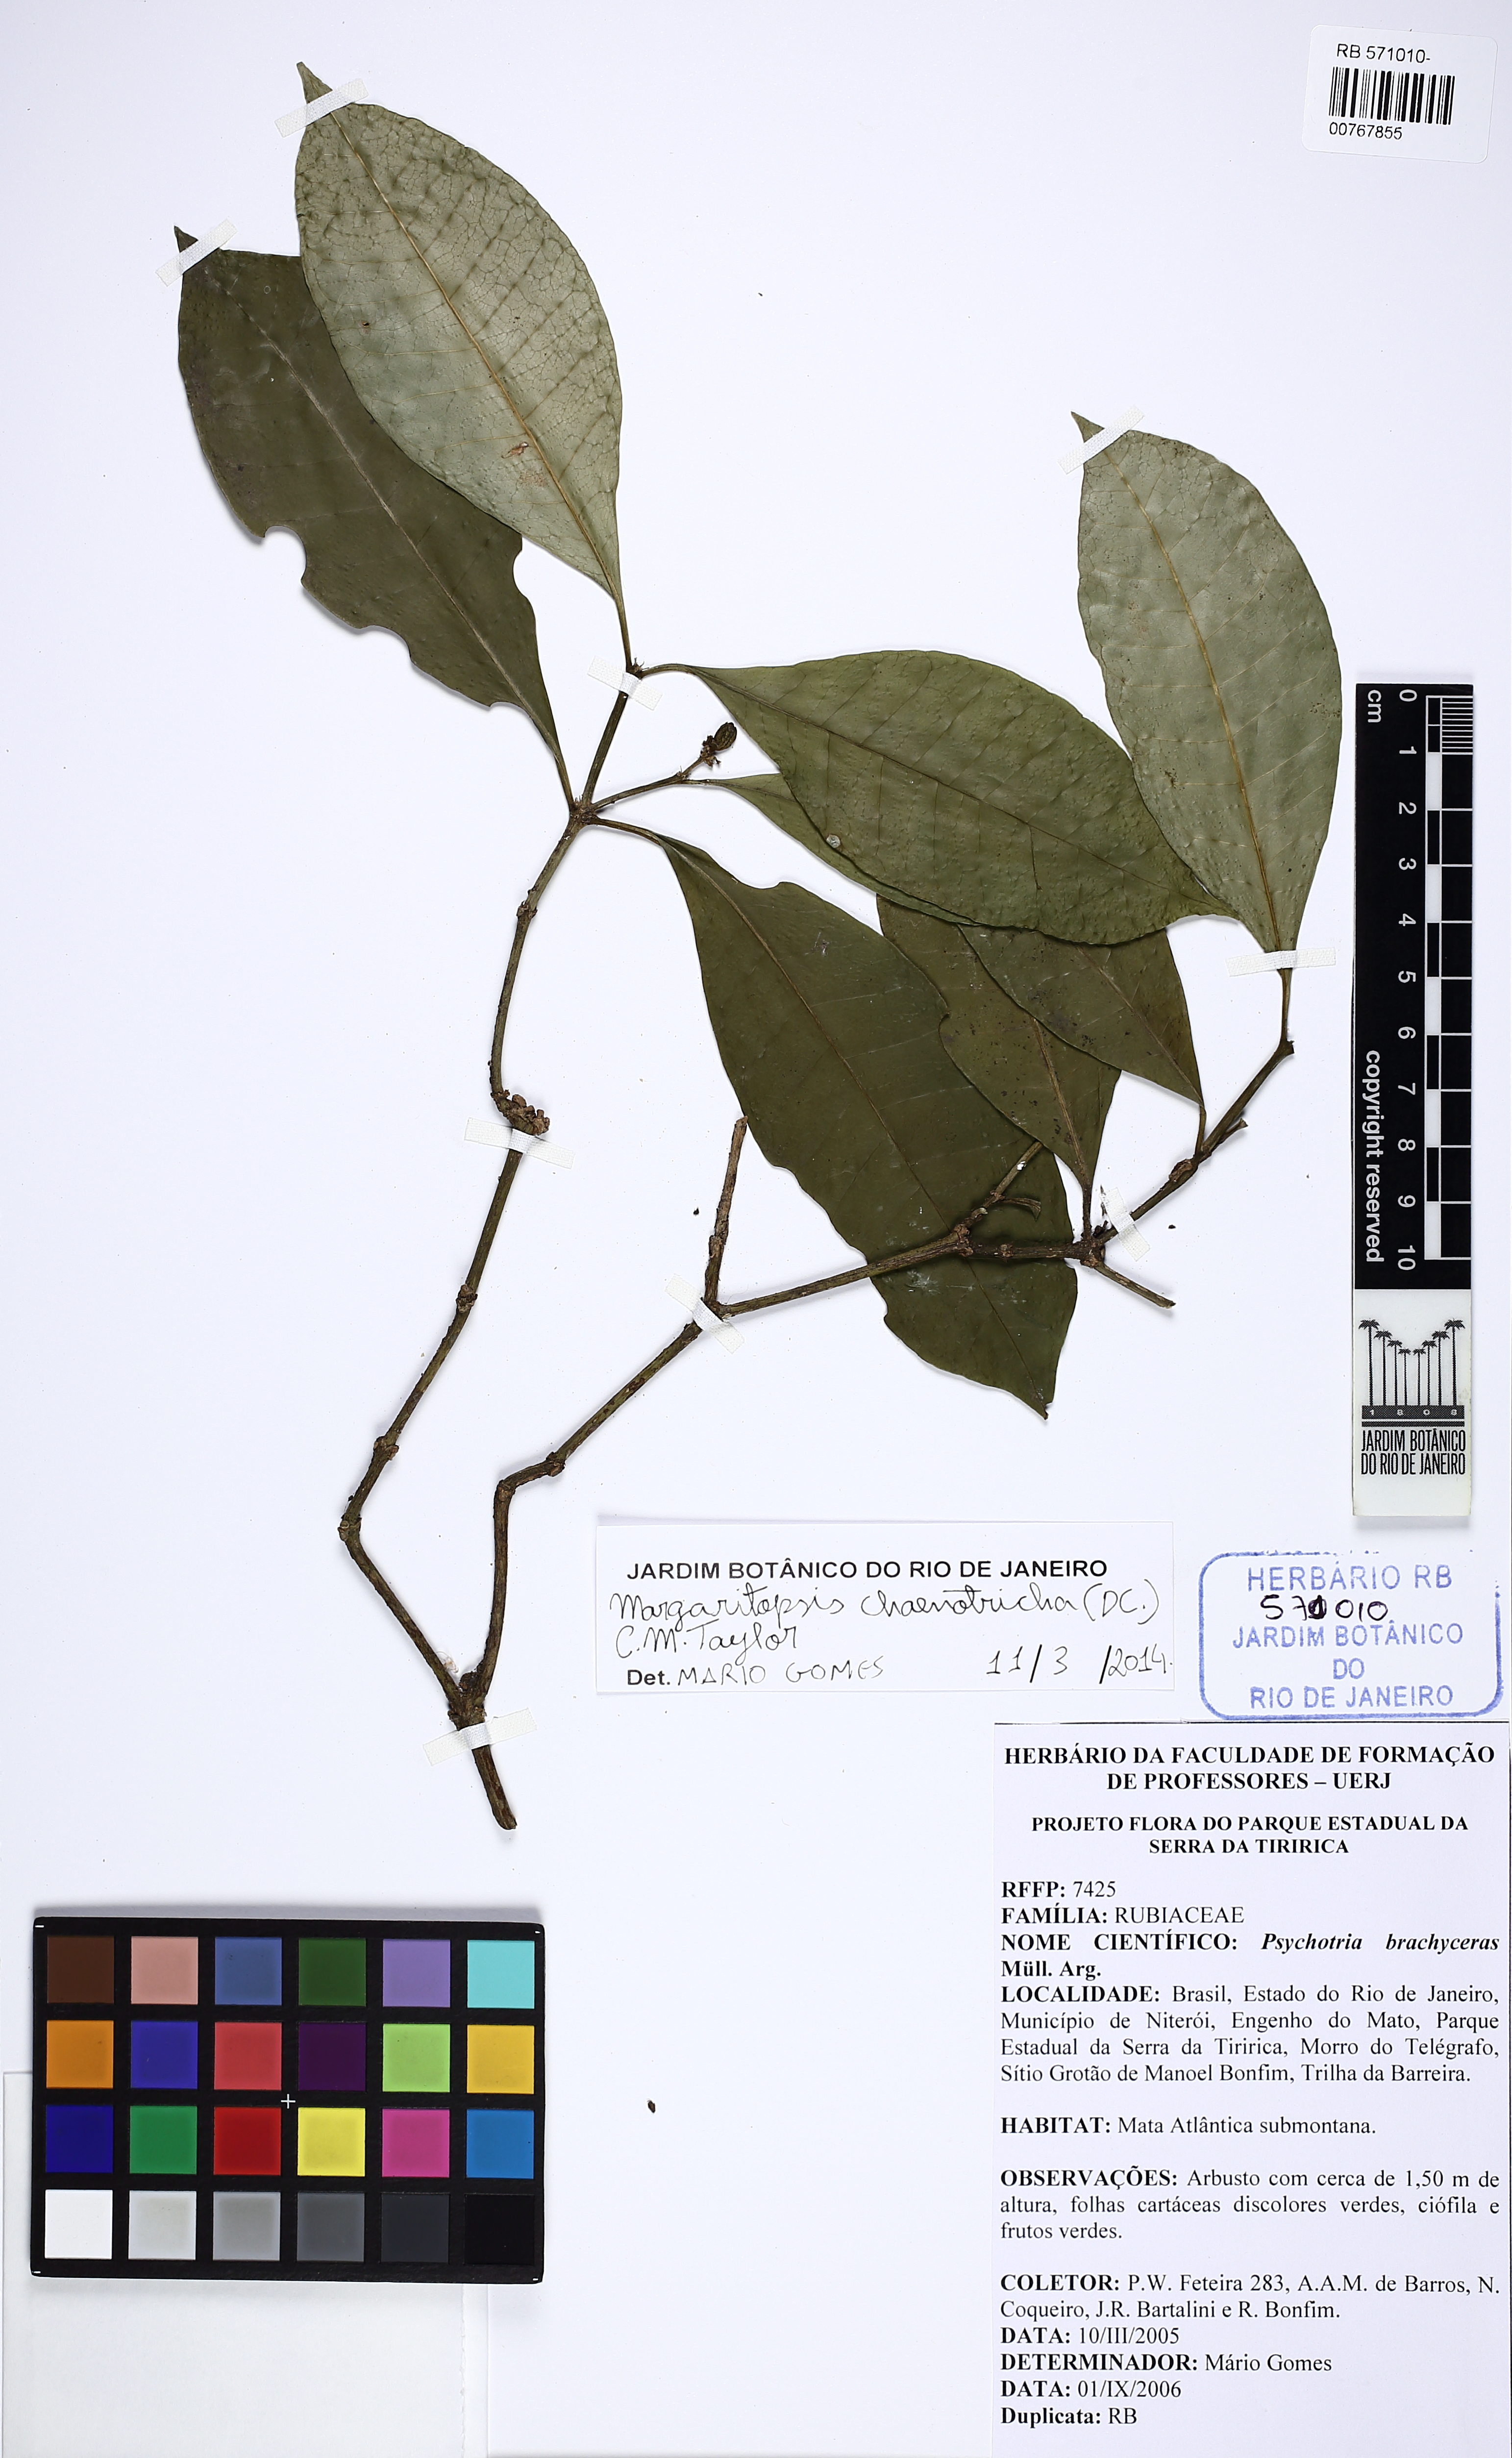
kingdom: Plantae
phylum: Tracheophyta
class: Magnoliopsida
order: Gentianales
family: Rubiaceae
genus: Eumachia
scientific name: Eumachia chaenotricha
